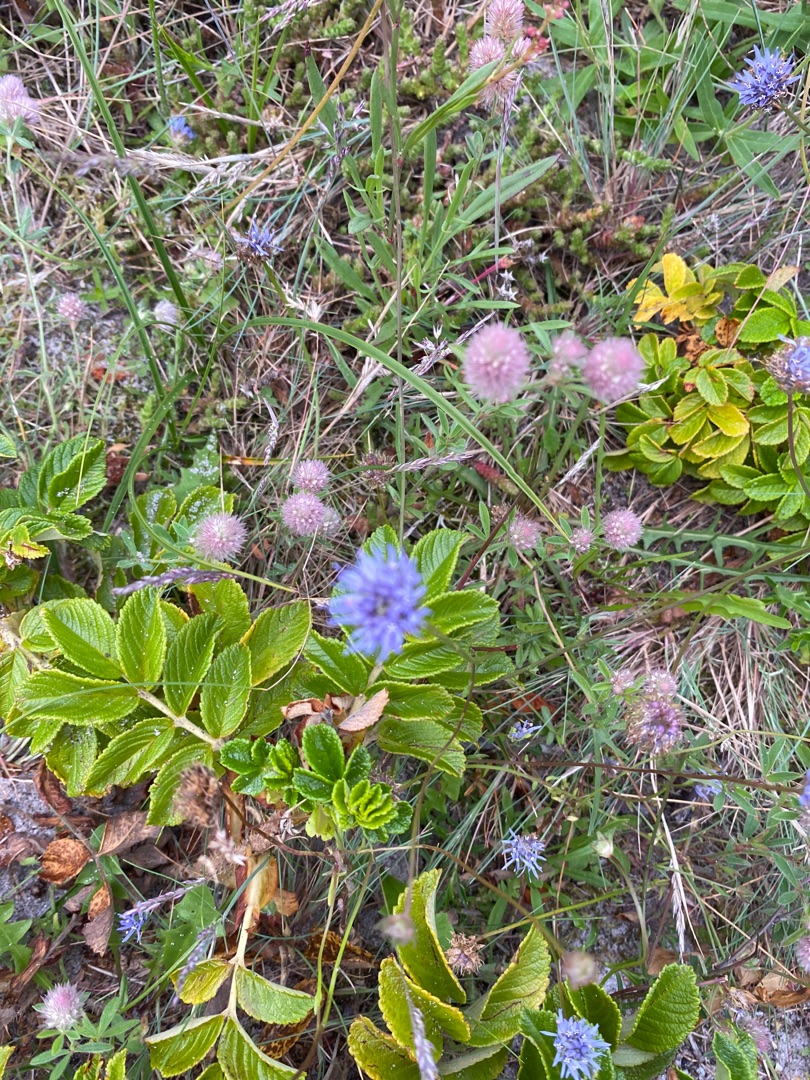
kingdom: Plantae
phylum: Tracheophyta
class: Magnoliopsida
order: Asterales
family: Campanulaceae
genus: Jasione
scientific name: Jasione montana
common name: Blåmunke
